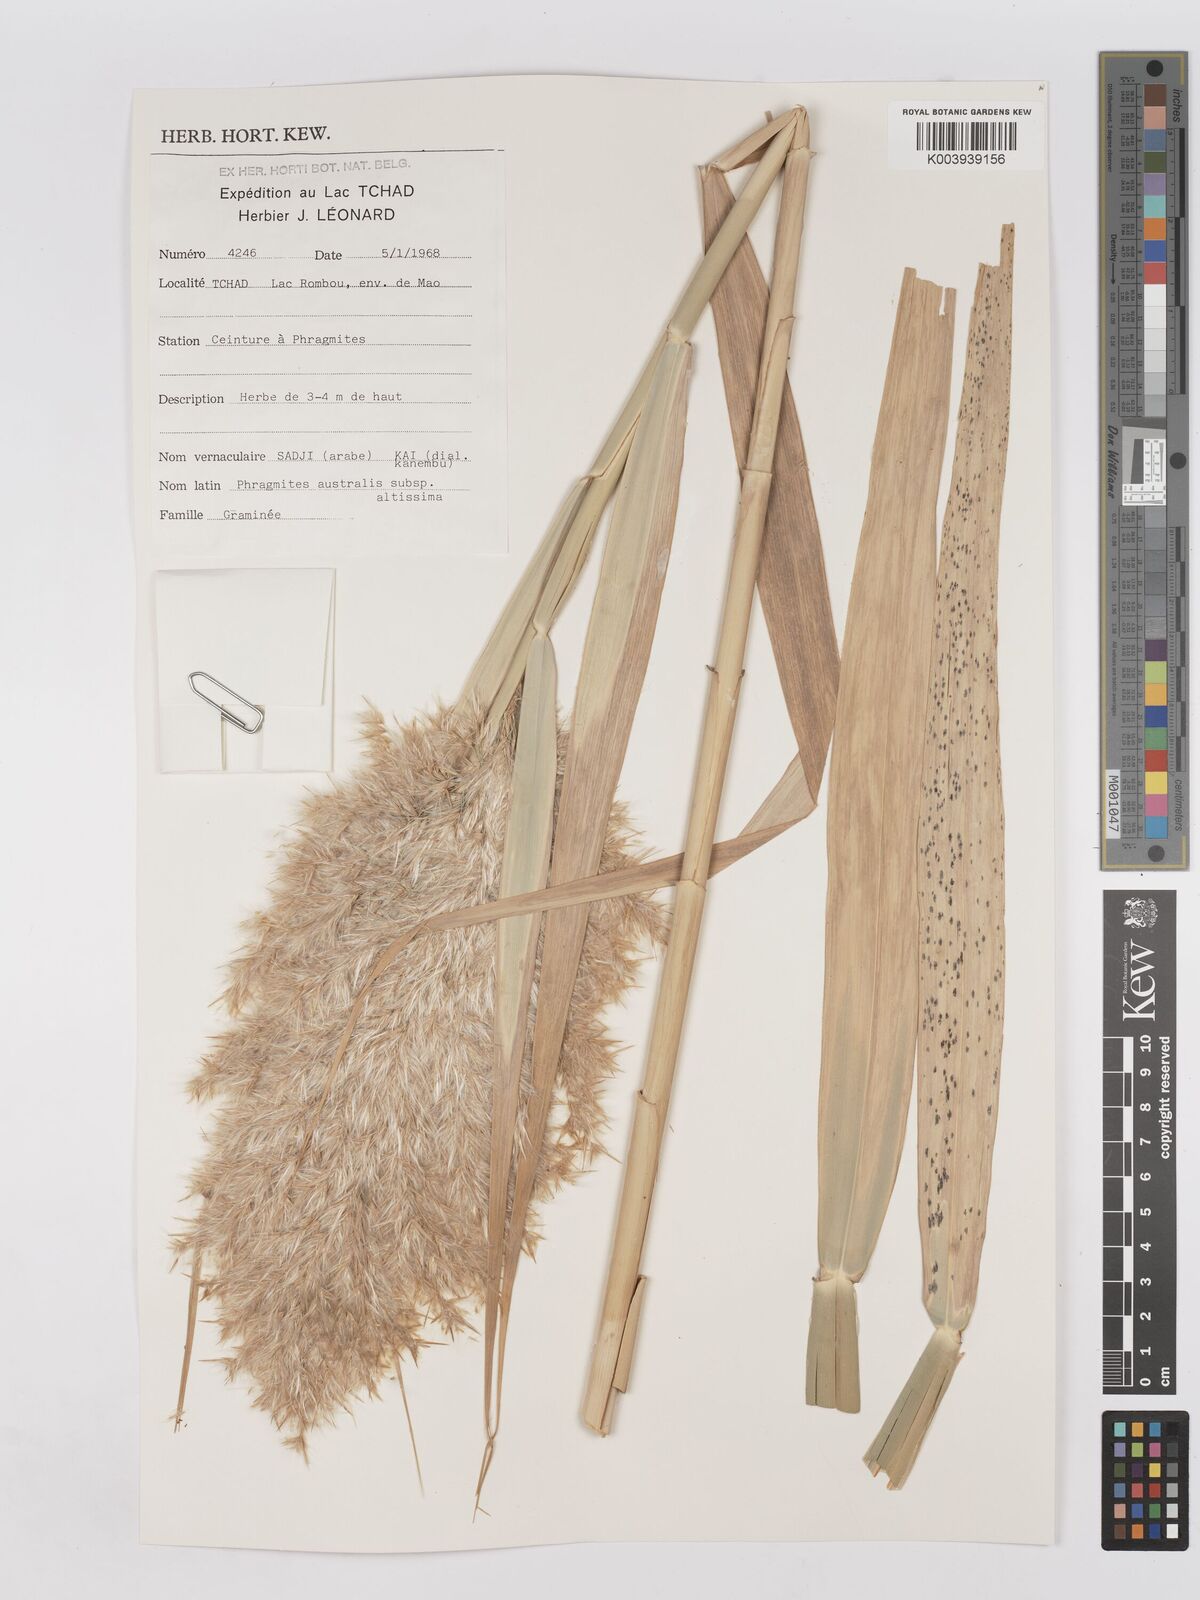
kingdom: Plantae
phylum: Tracheophyta
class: Liliopsida
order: Poales
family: Poaceae
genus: Phragmites
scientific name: Phragmites australis
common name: Common reed
